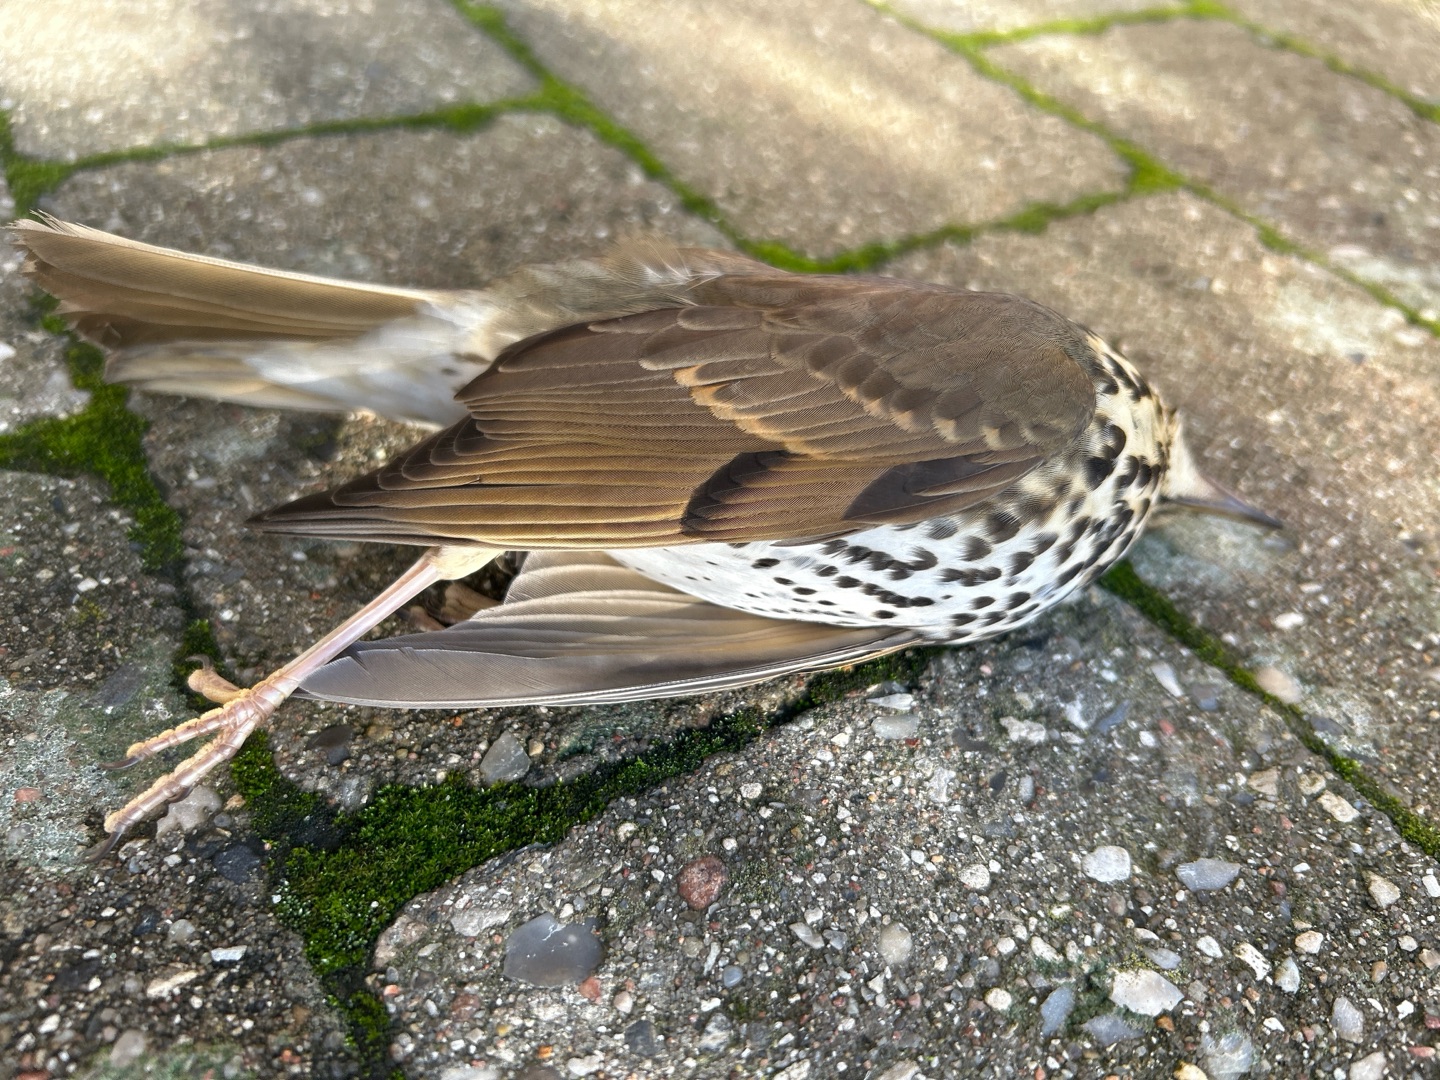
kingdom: Animalia
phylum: Chordata
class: Aves
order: Passeriformes
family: Turdidae
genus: Turdus
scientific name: Turdus philomelos
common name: Sangdrossel
